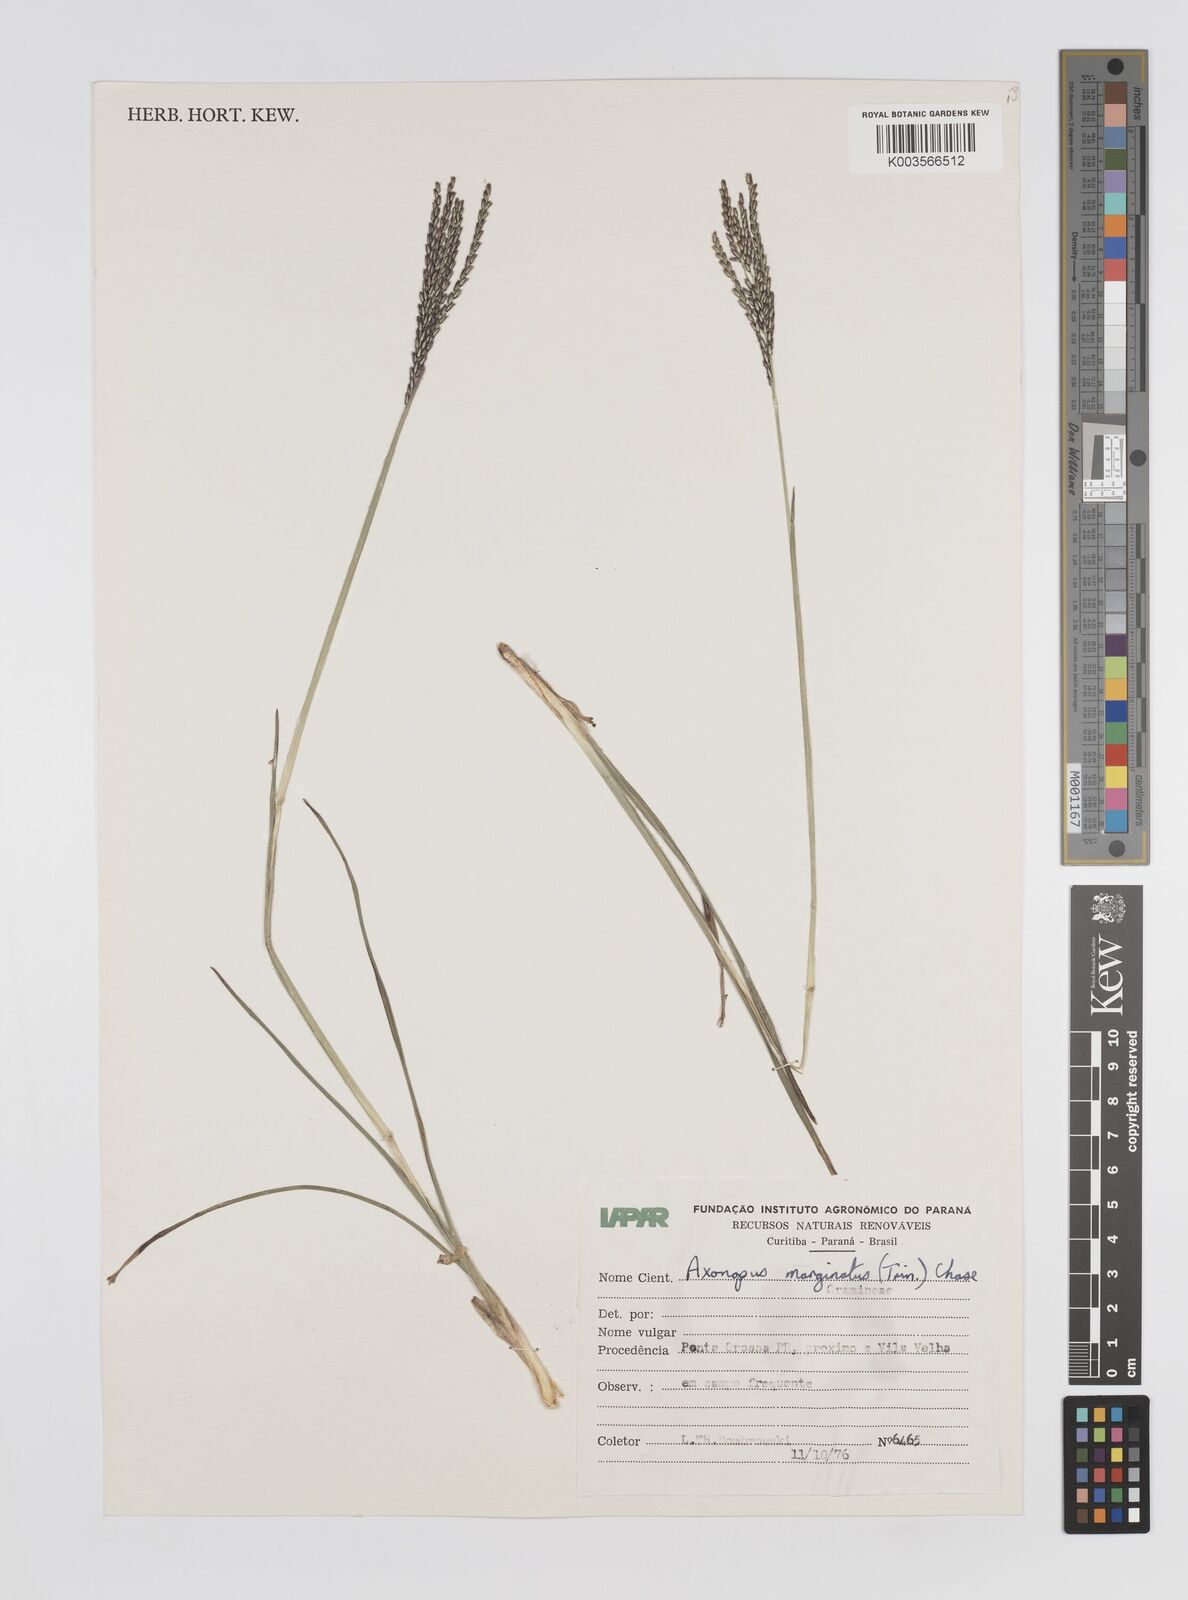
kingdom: Plantae
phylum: Tracheophyta
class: Liliopsida
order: Poales
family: Poaceae
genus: Axonopus
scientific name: Axonopus marginatus
